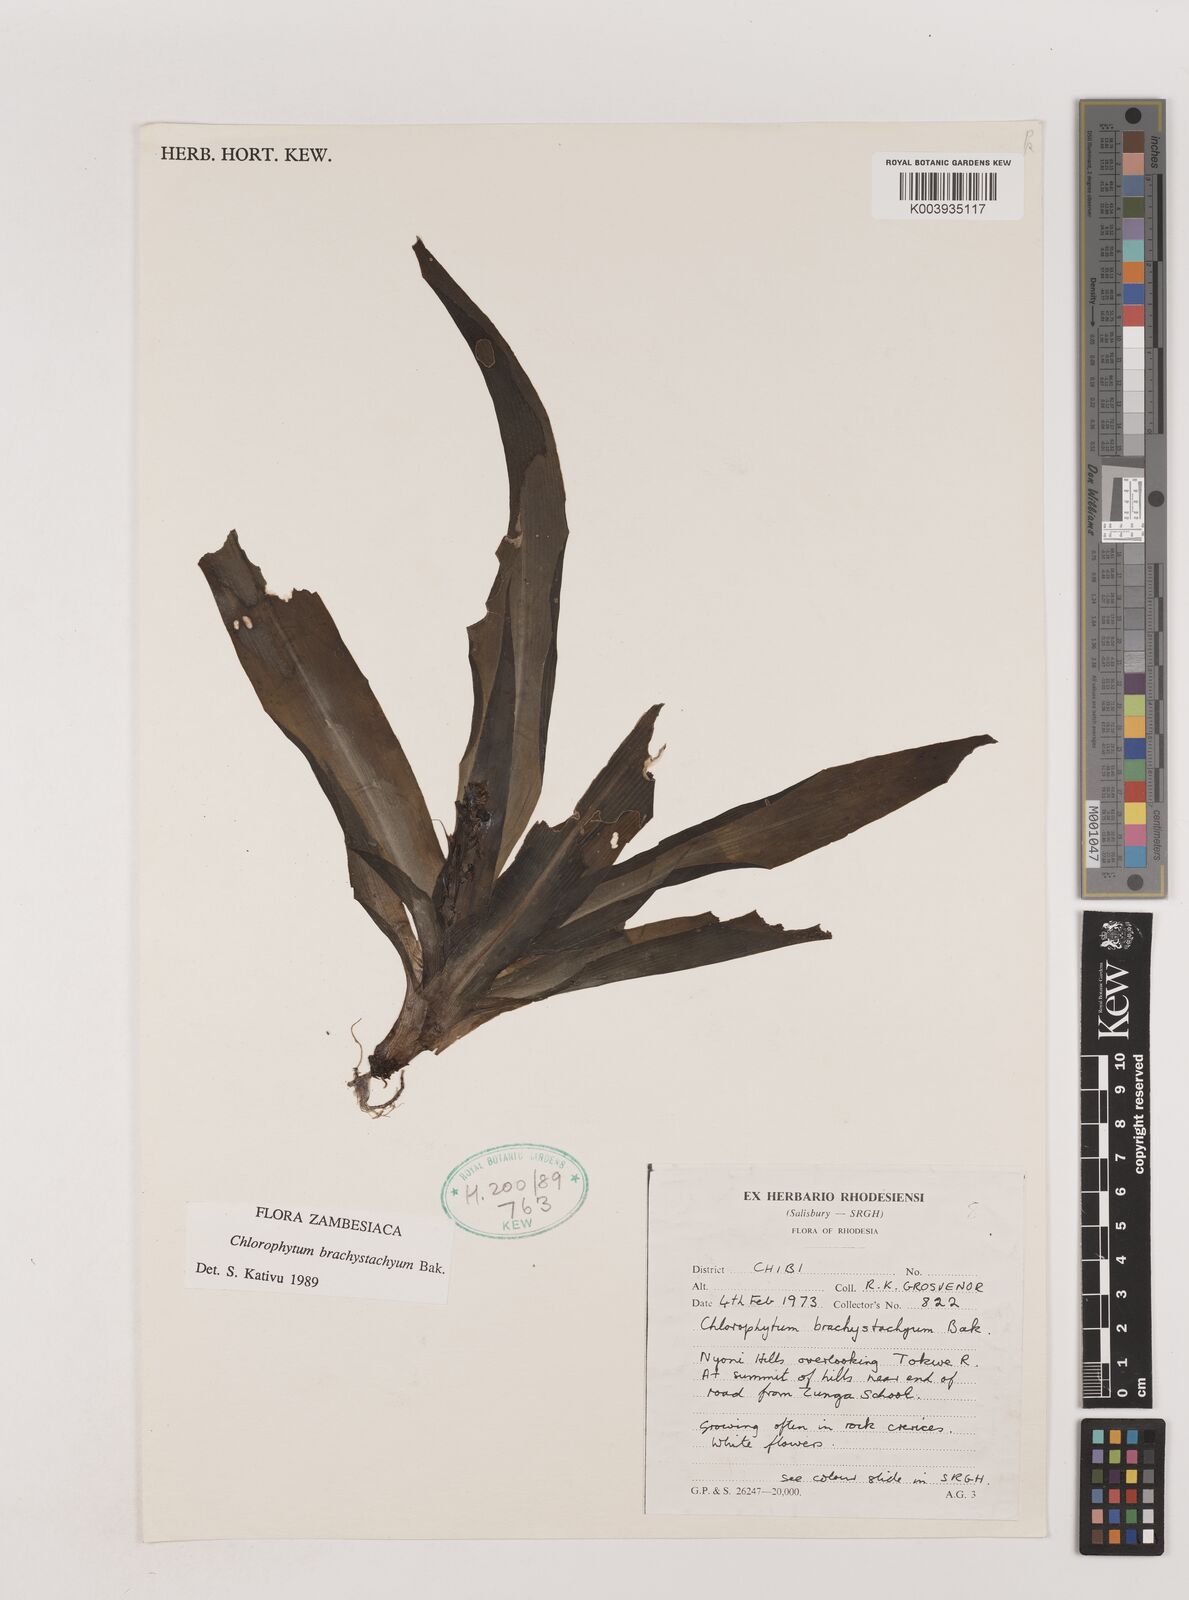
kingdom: Plantae
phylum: Tracheophyta
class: Liliopsida
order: Asparagales
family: Asparagaceae
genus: Chlorophytum
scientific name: Chlorophytum brachystachyum
